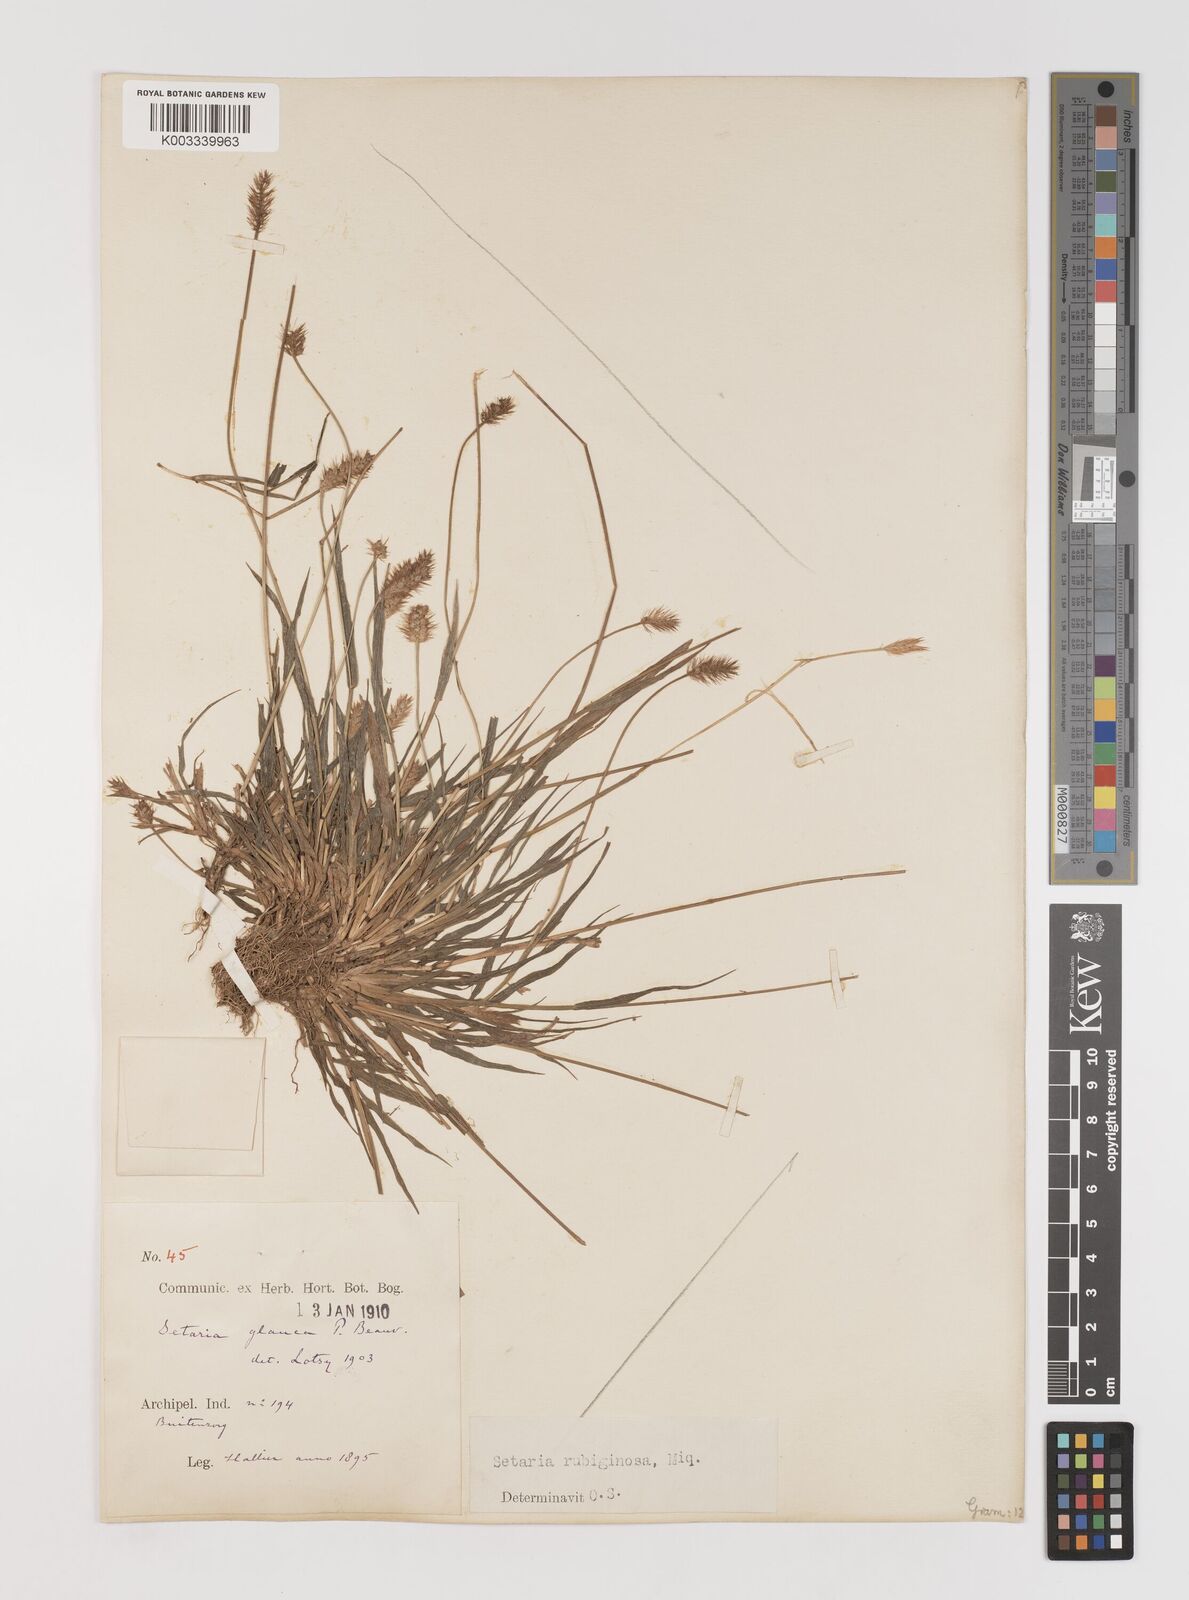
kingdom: Plantae
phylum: Tracheophyta
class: Liliopsida
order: Poales
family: Poaceae
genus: Setaria
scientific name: Setaria parviflora
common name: Knotroot bristle-grass
